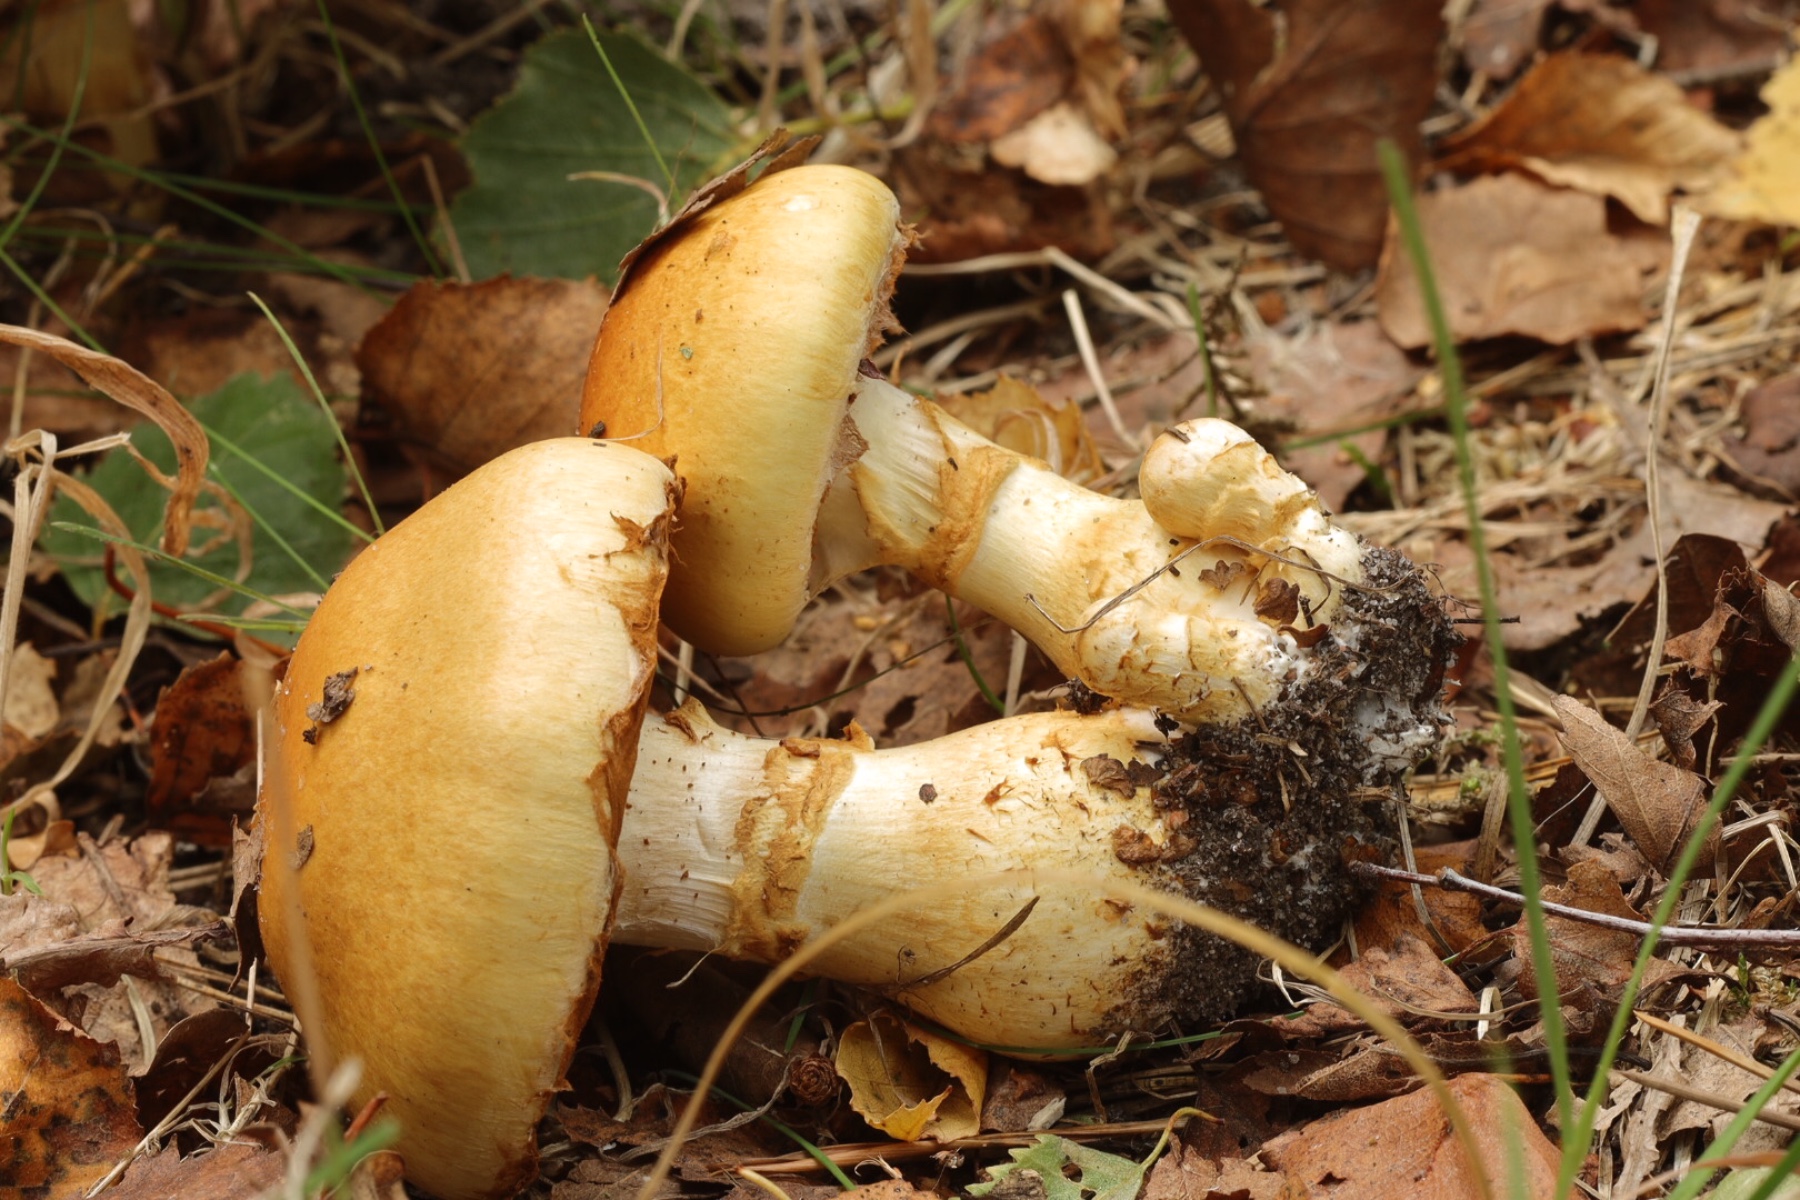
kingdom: Fungi
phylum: Basidiomycota
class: Agaricomycetes
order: Agaricales
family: Cortinariaceae
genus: Phlegmacium
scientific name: Phlegmacium triumphans
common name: gulbæltet slørhat
